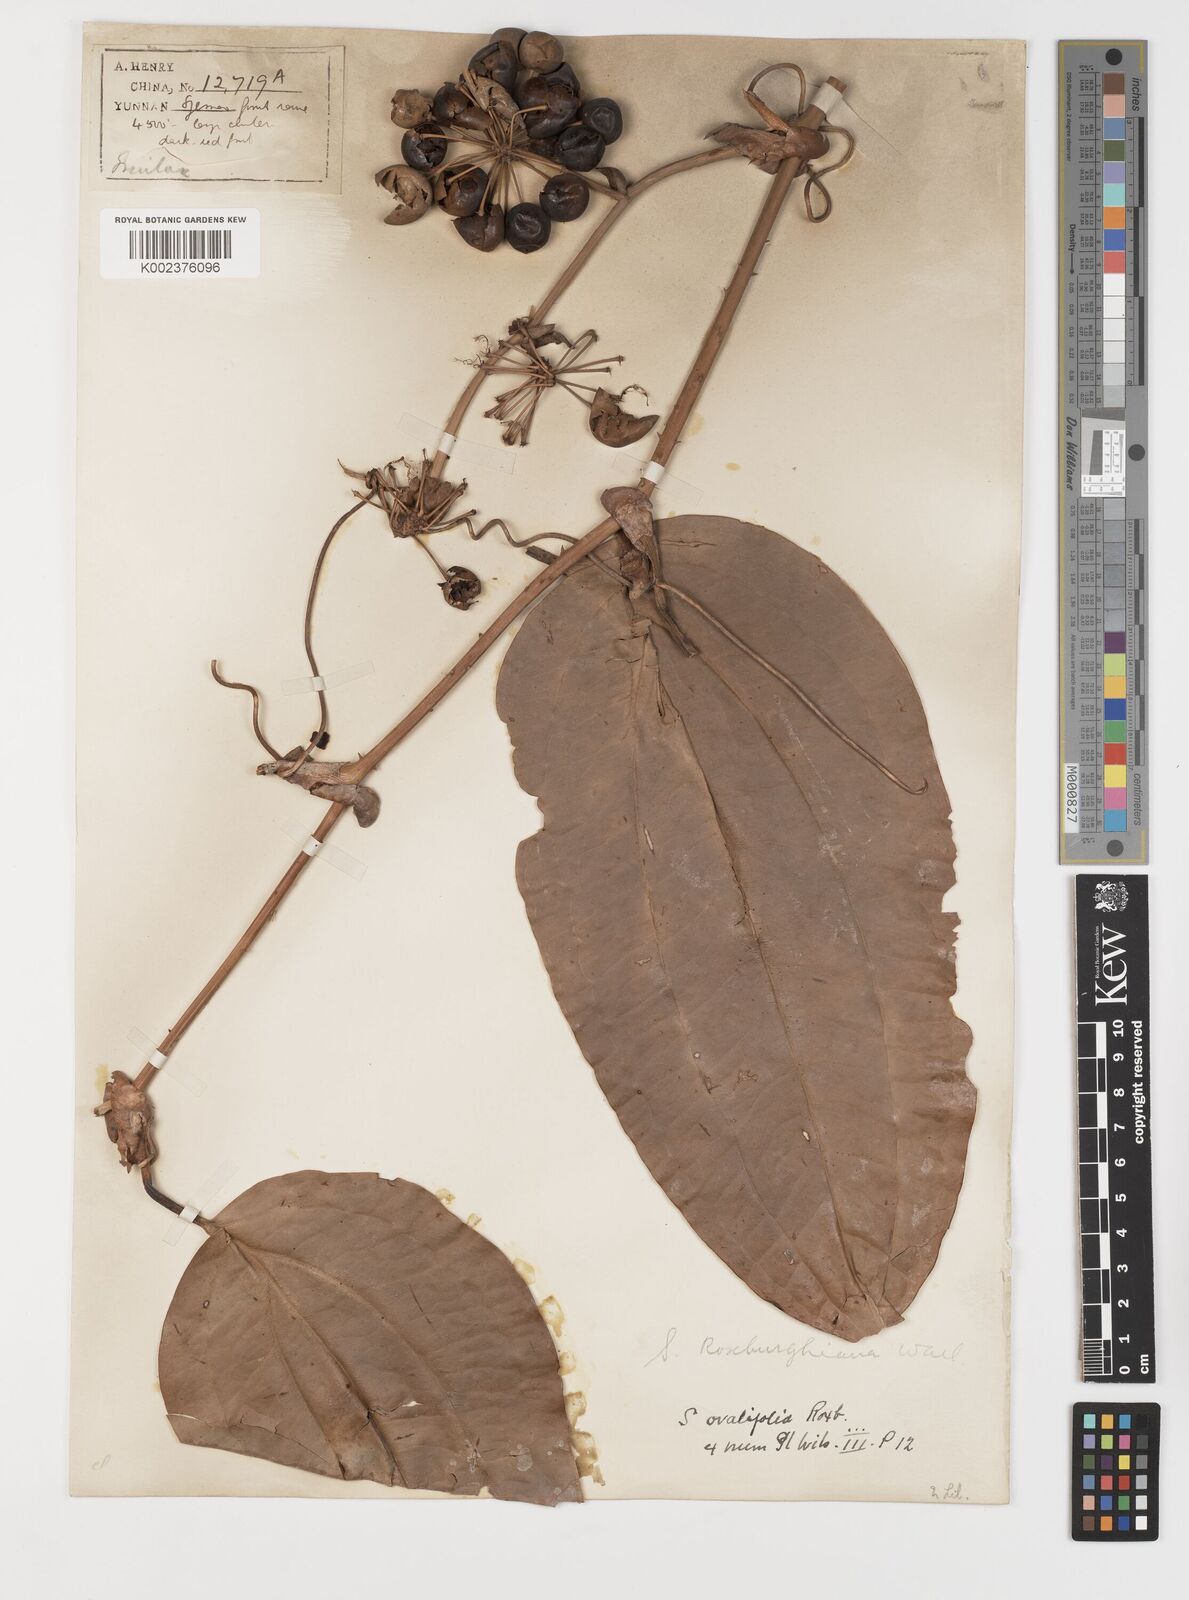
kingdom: Plantae
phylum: Tracheophyta
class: Liliopsida
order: Liliales
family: Smilacaceae
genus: Smilax
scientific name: Smilax
